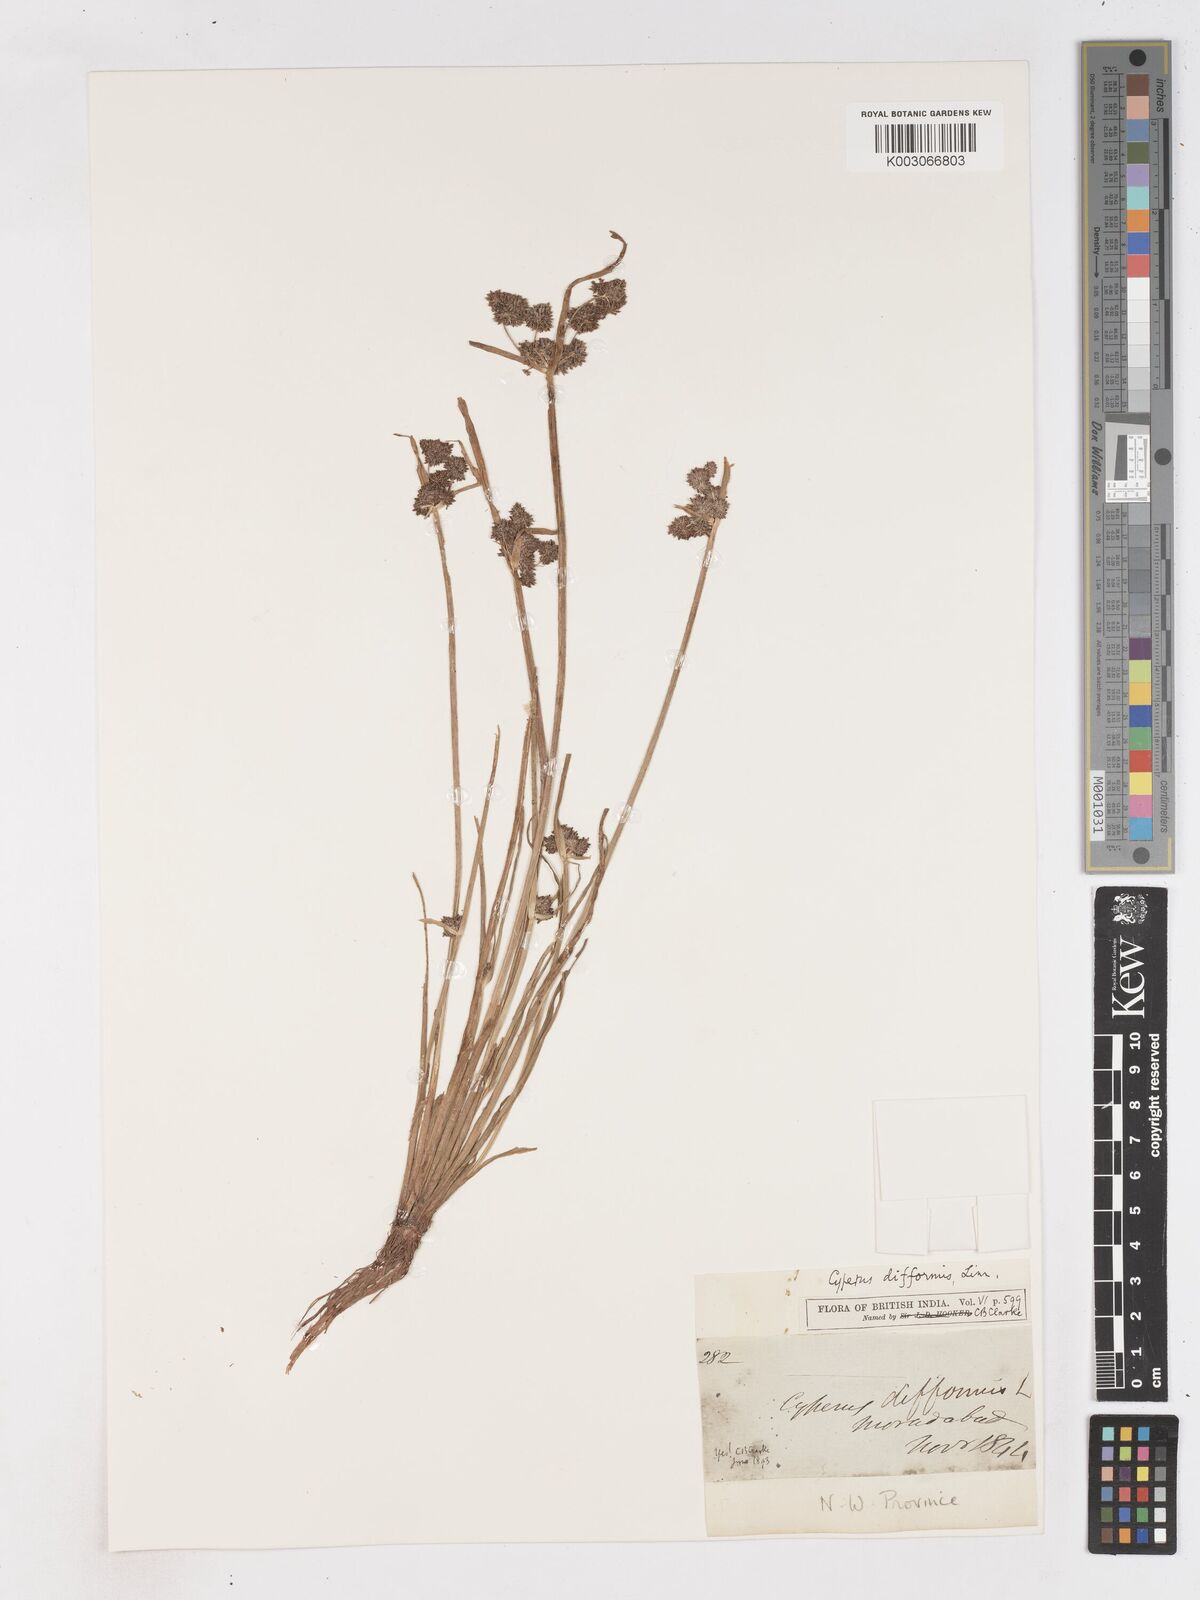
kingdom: Plantae
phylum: Tracheophyta
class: Liliopsida
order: Poales
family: Cyperaceae
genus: Cyperus
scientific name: Cyperus difformis
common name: Variable flatsedge
